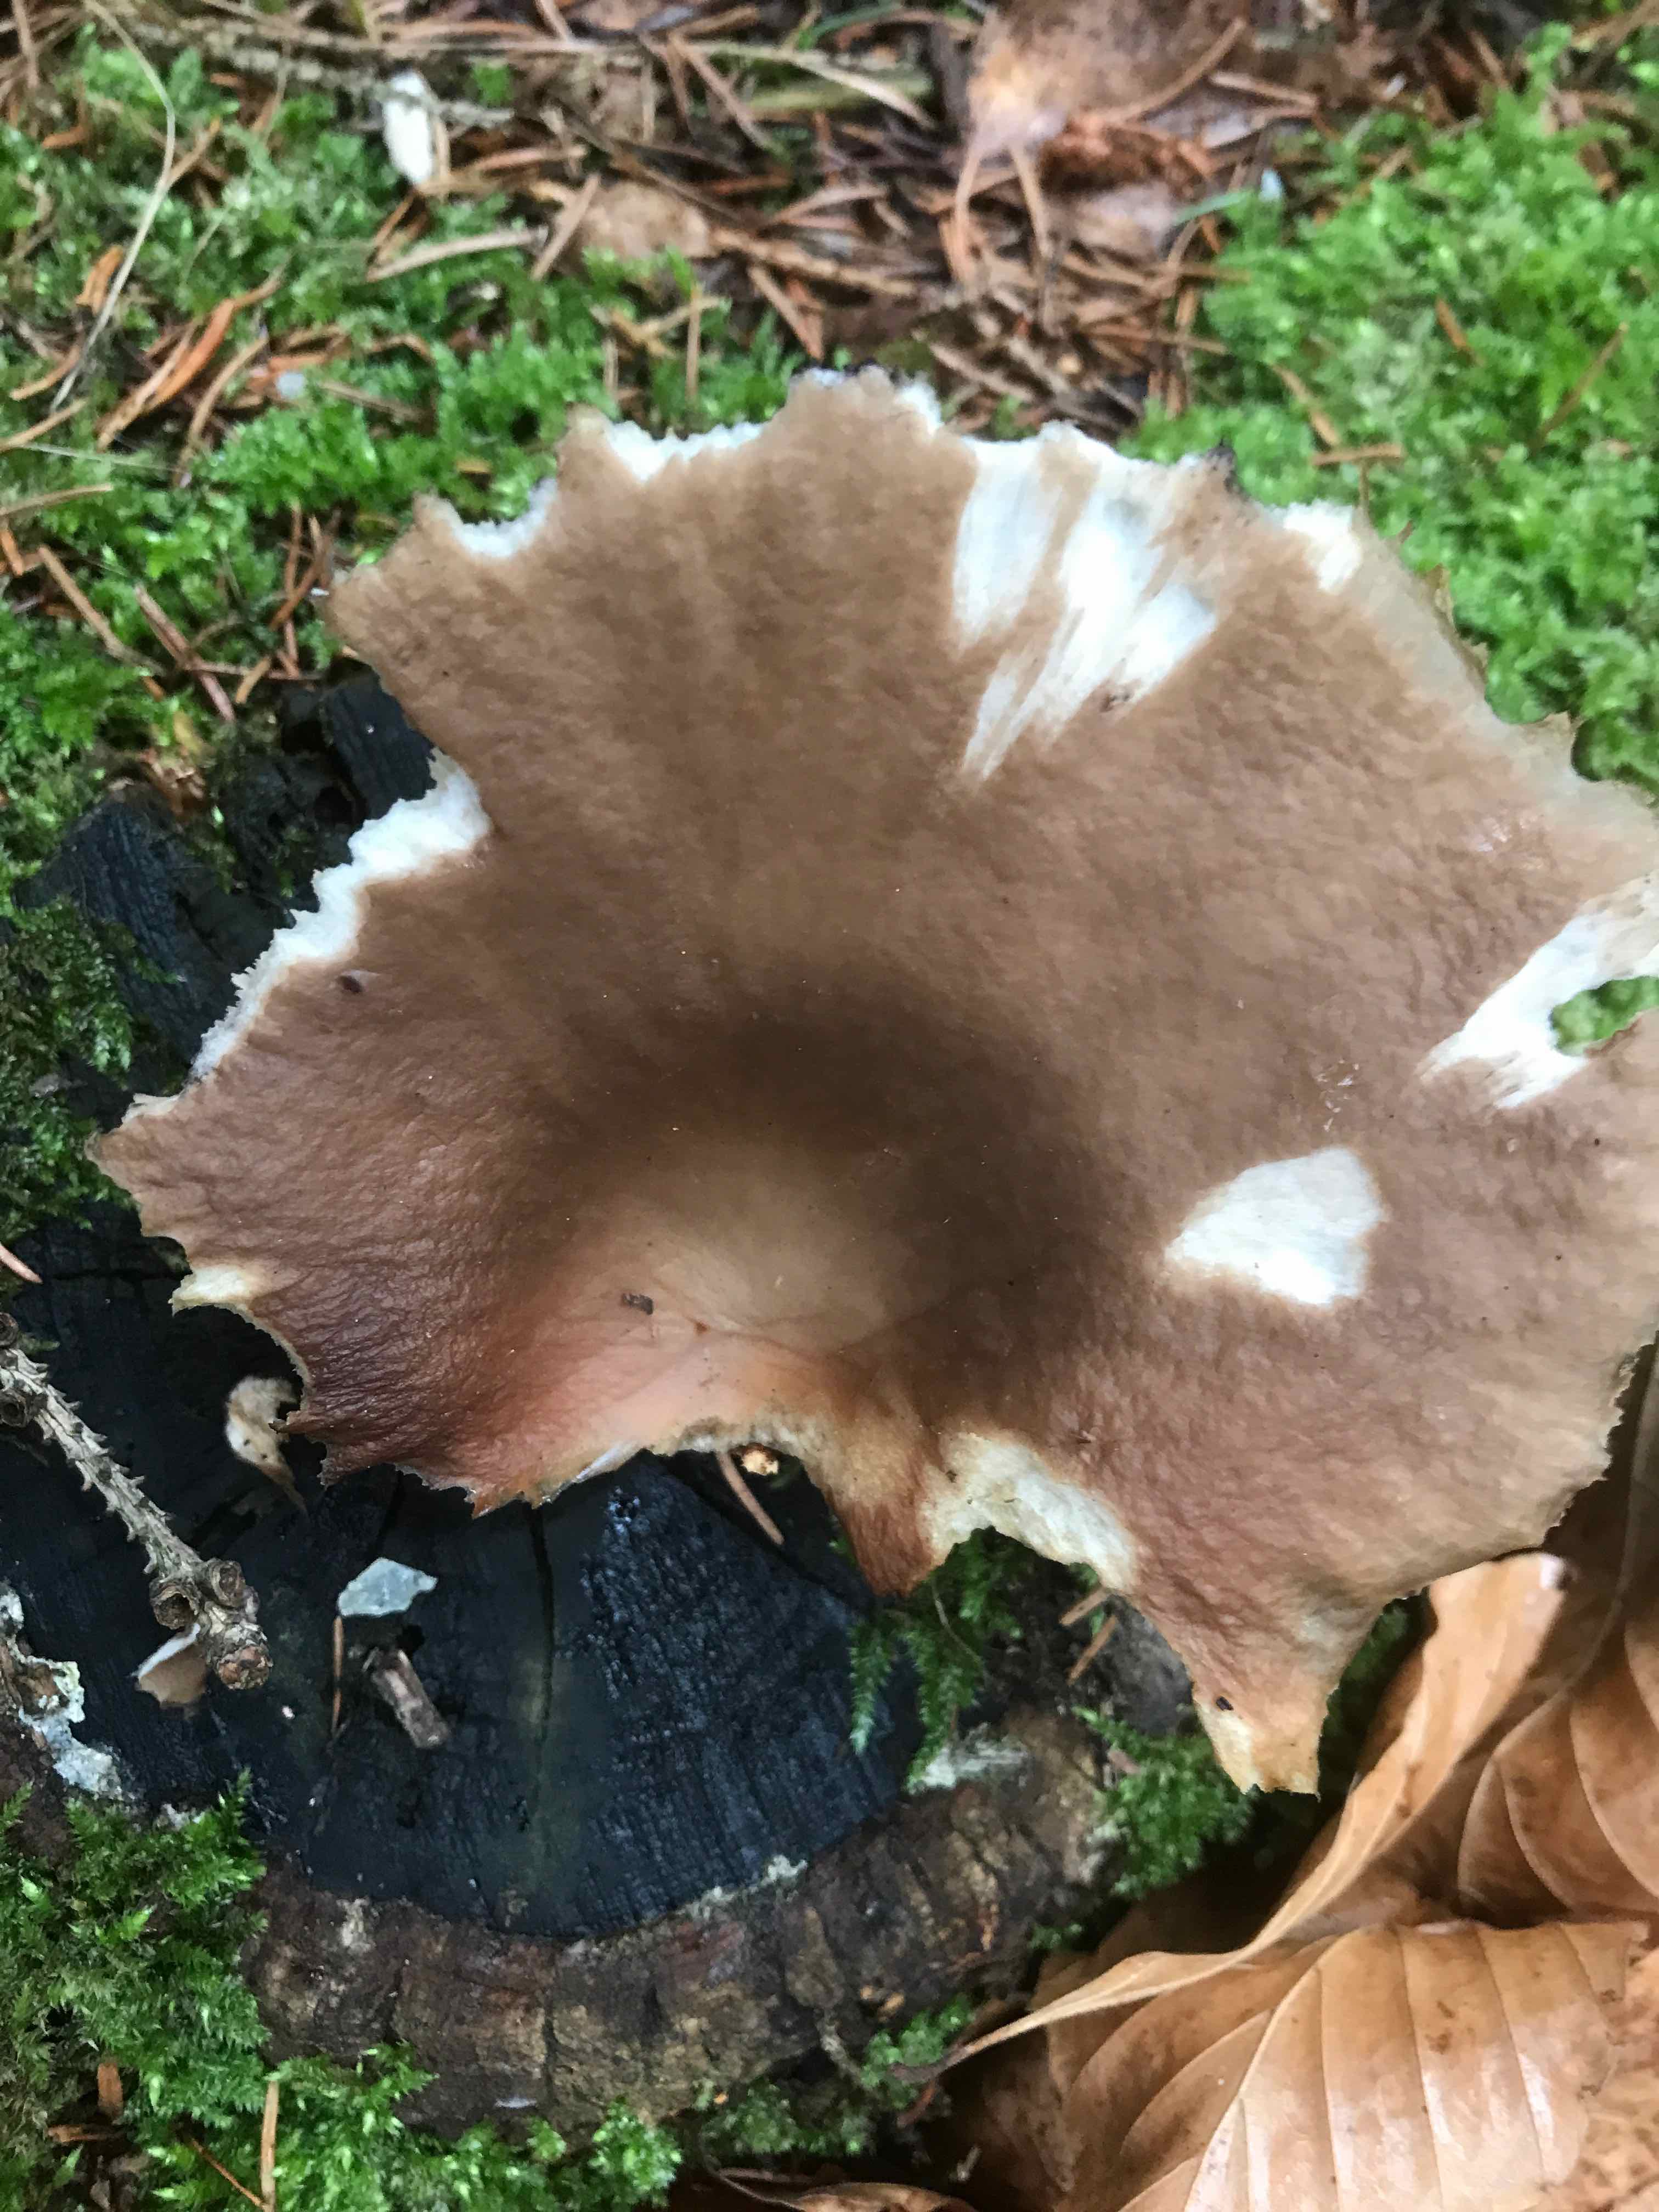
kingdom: Fungi
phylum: Basidiomycota
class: Agaricomycetes
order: Agaricales
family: Pleurotaceae
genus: Pleurotus
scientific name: Pleurotus ostreatus
